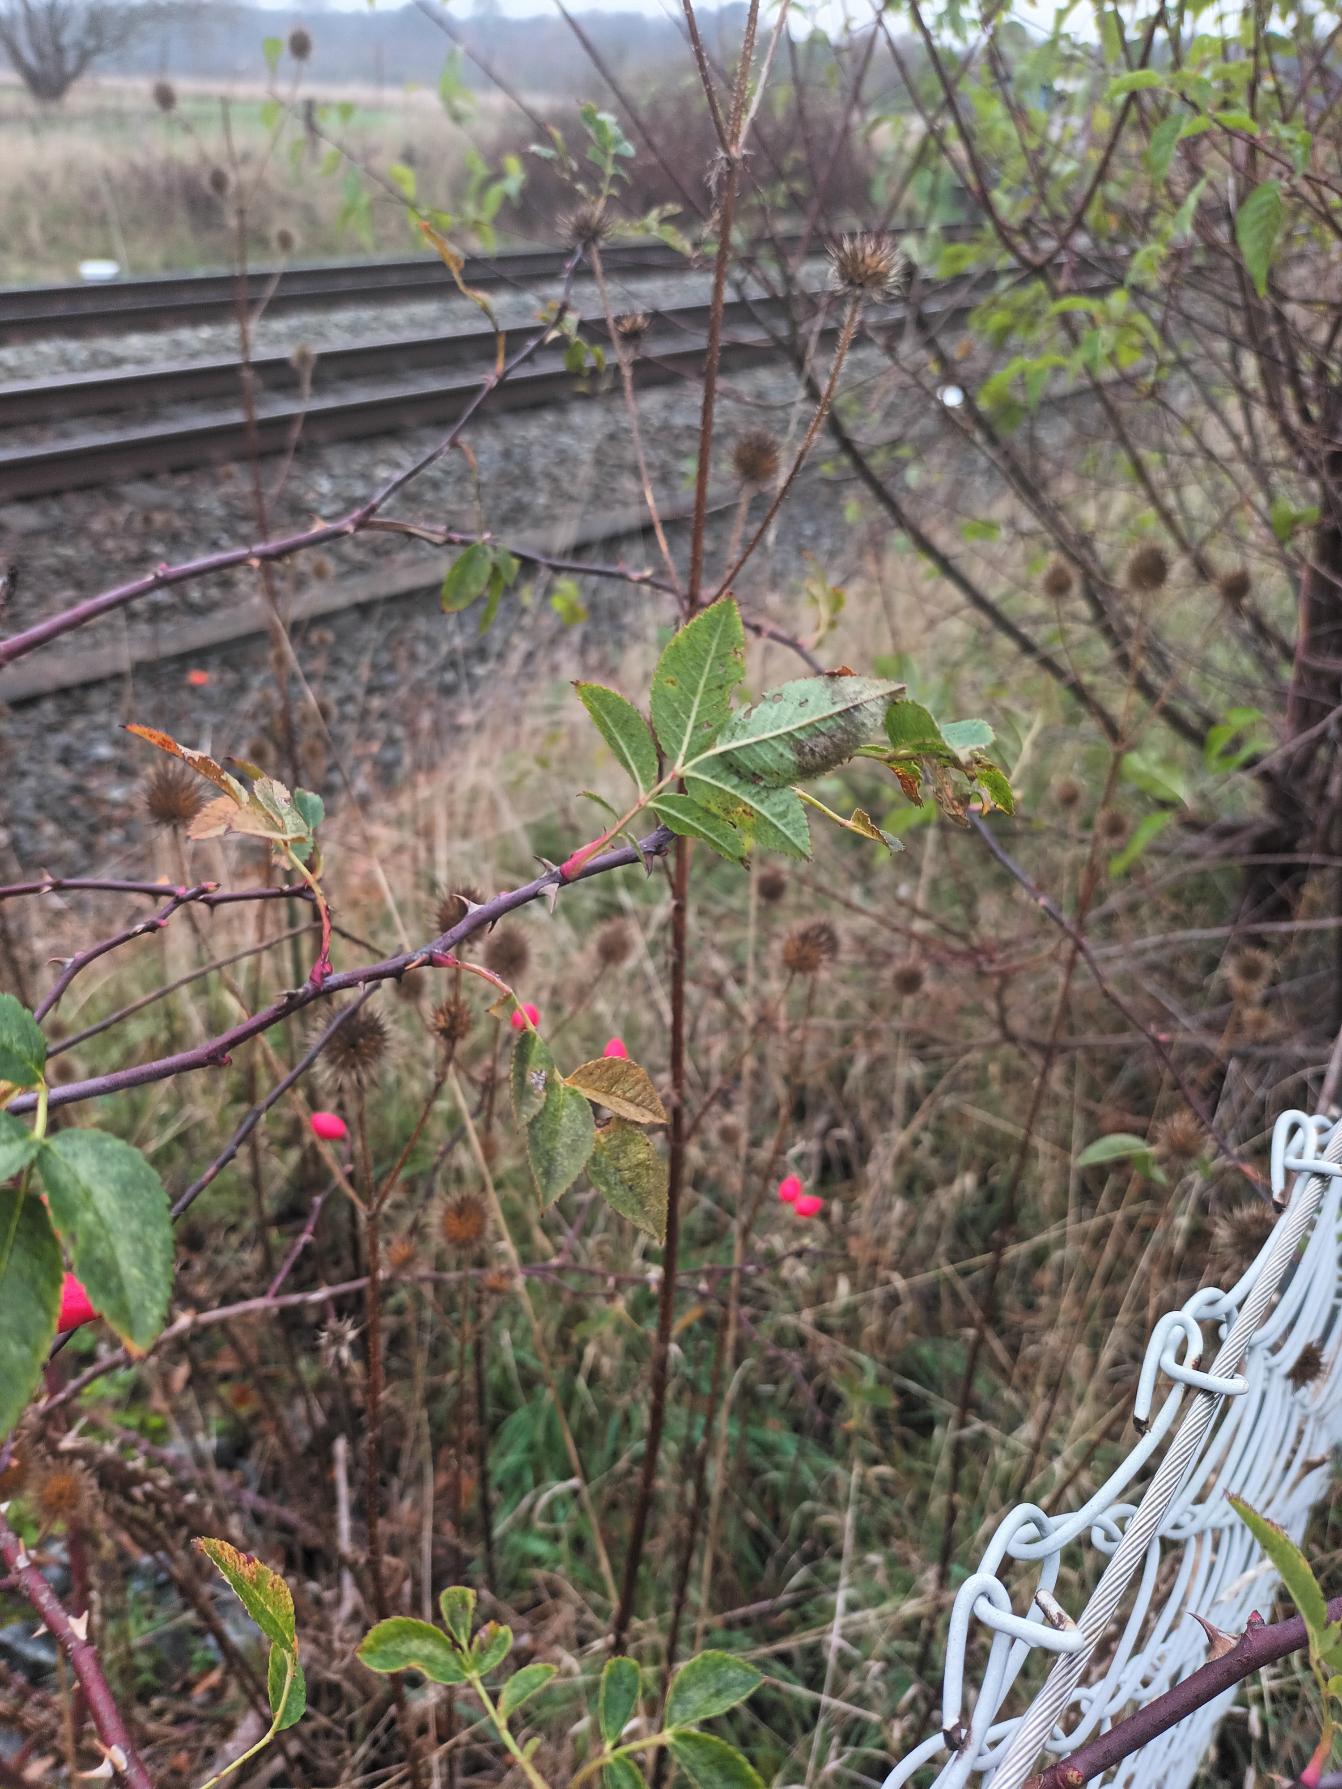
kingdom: Plantae
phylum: Tracheophyta
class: Magnoliopsida
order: Rosales
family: Rosaceae
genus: Rosa
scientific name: Rosa canina
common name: Glat hunde-rose
